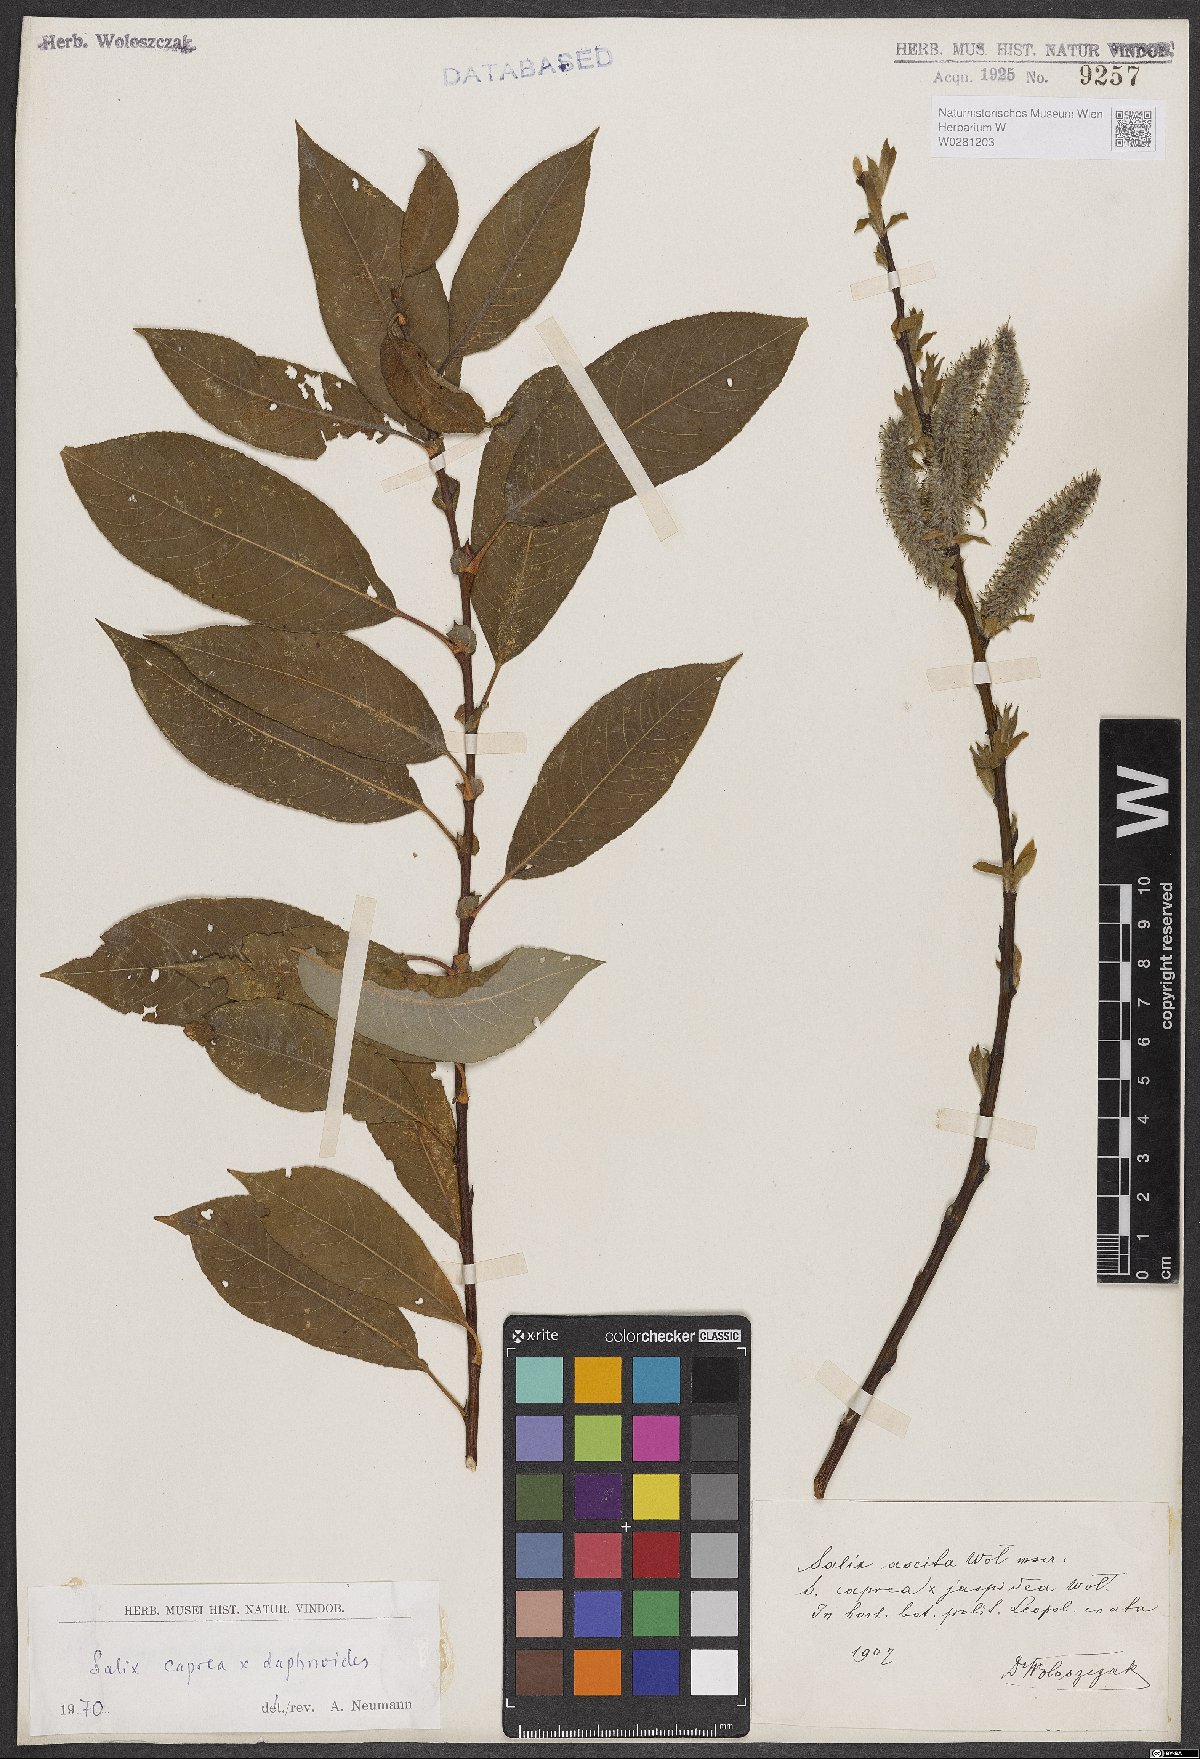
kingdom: Plantae
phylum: Tracheophyta
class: Magnoliopsida
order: Malpighiales
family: Salicaceae
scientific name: Salicaceae
